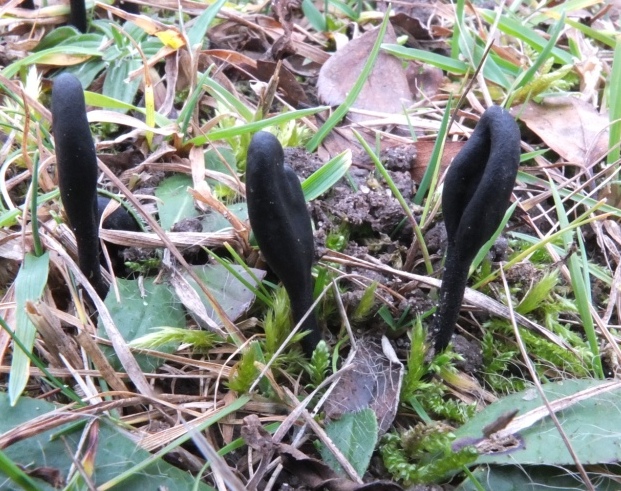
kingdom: Fungi
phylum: Ascomycota
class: Geoglossomycetes
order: Geoglossales
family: Geoglossaceae
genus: Trichoglossum
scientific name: Trichoglossum variabile
